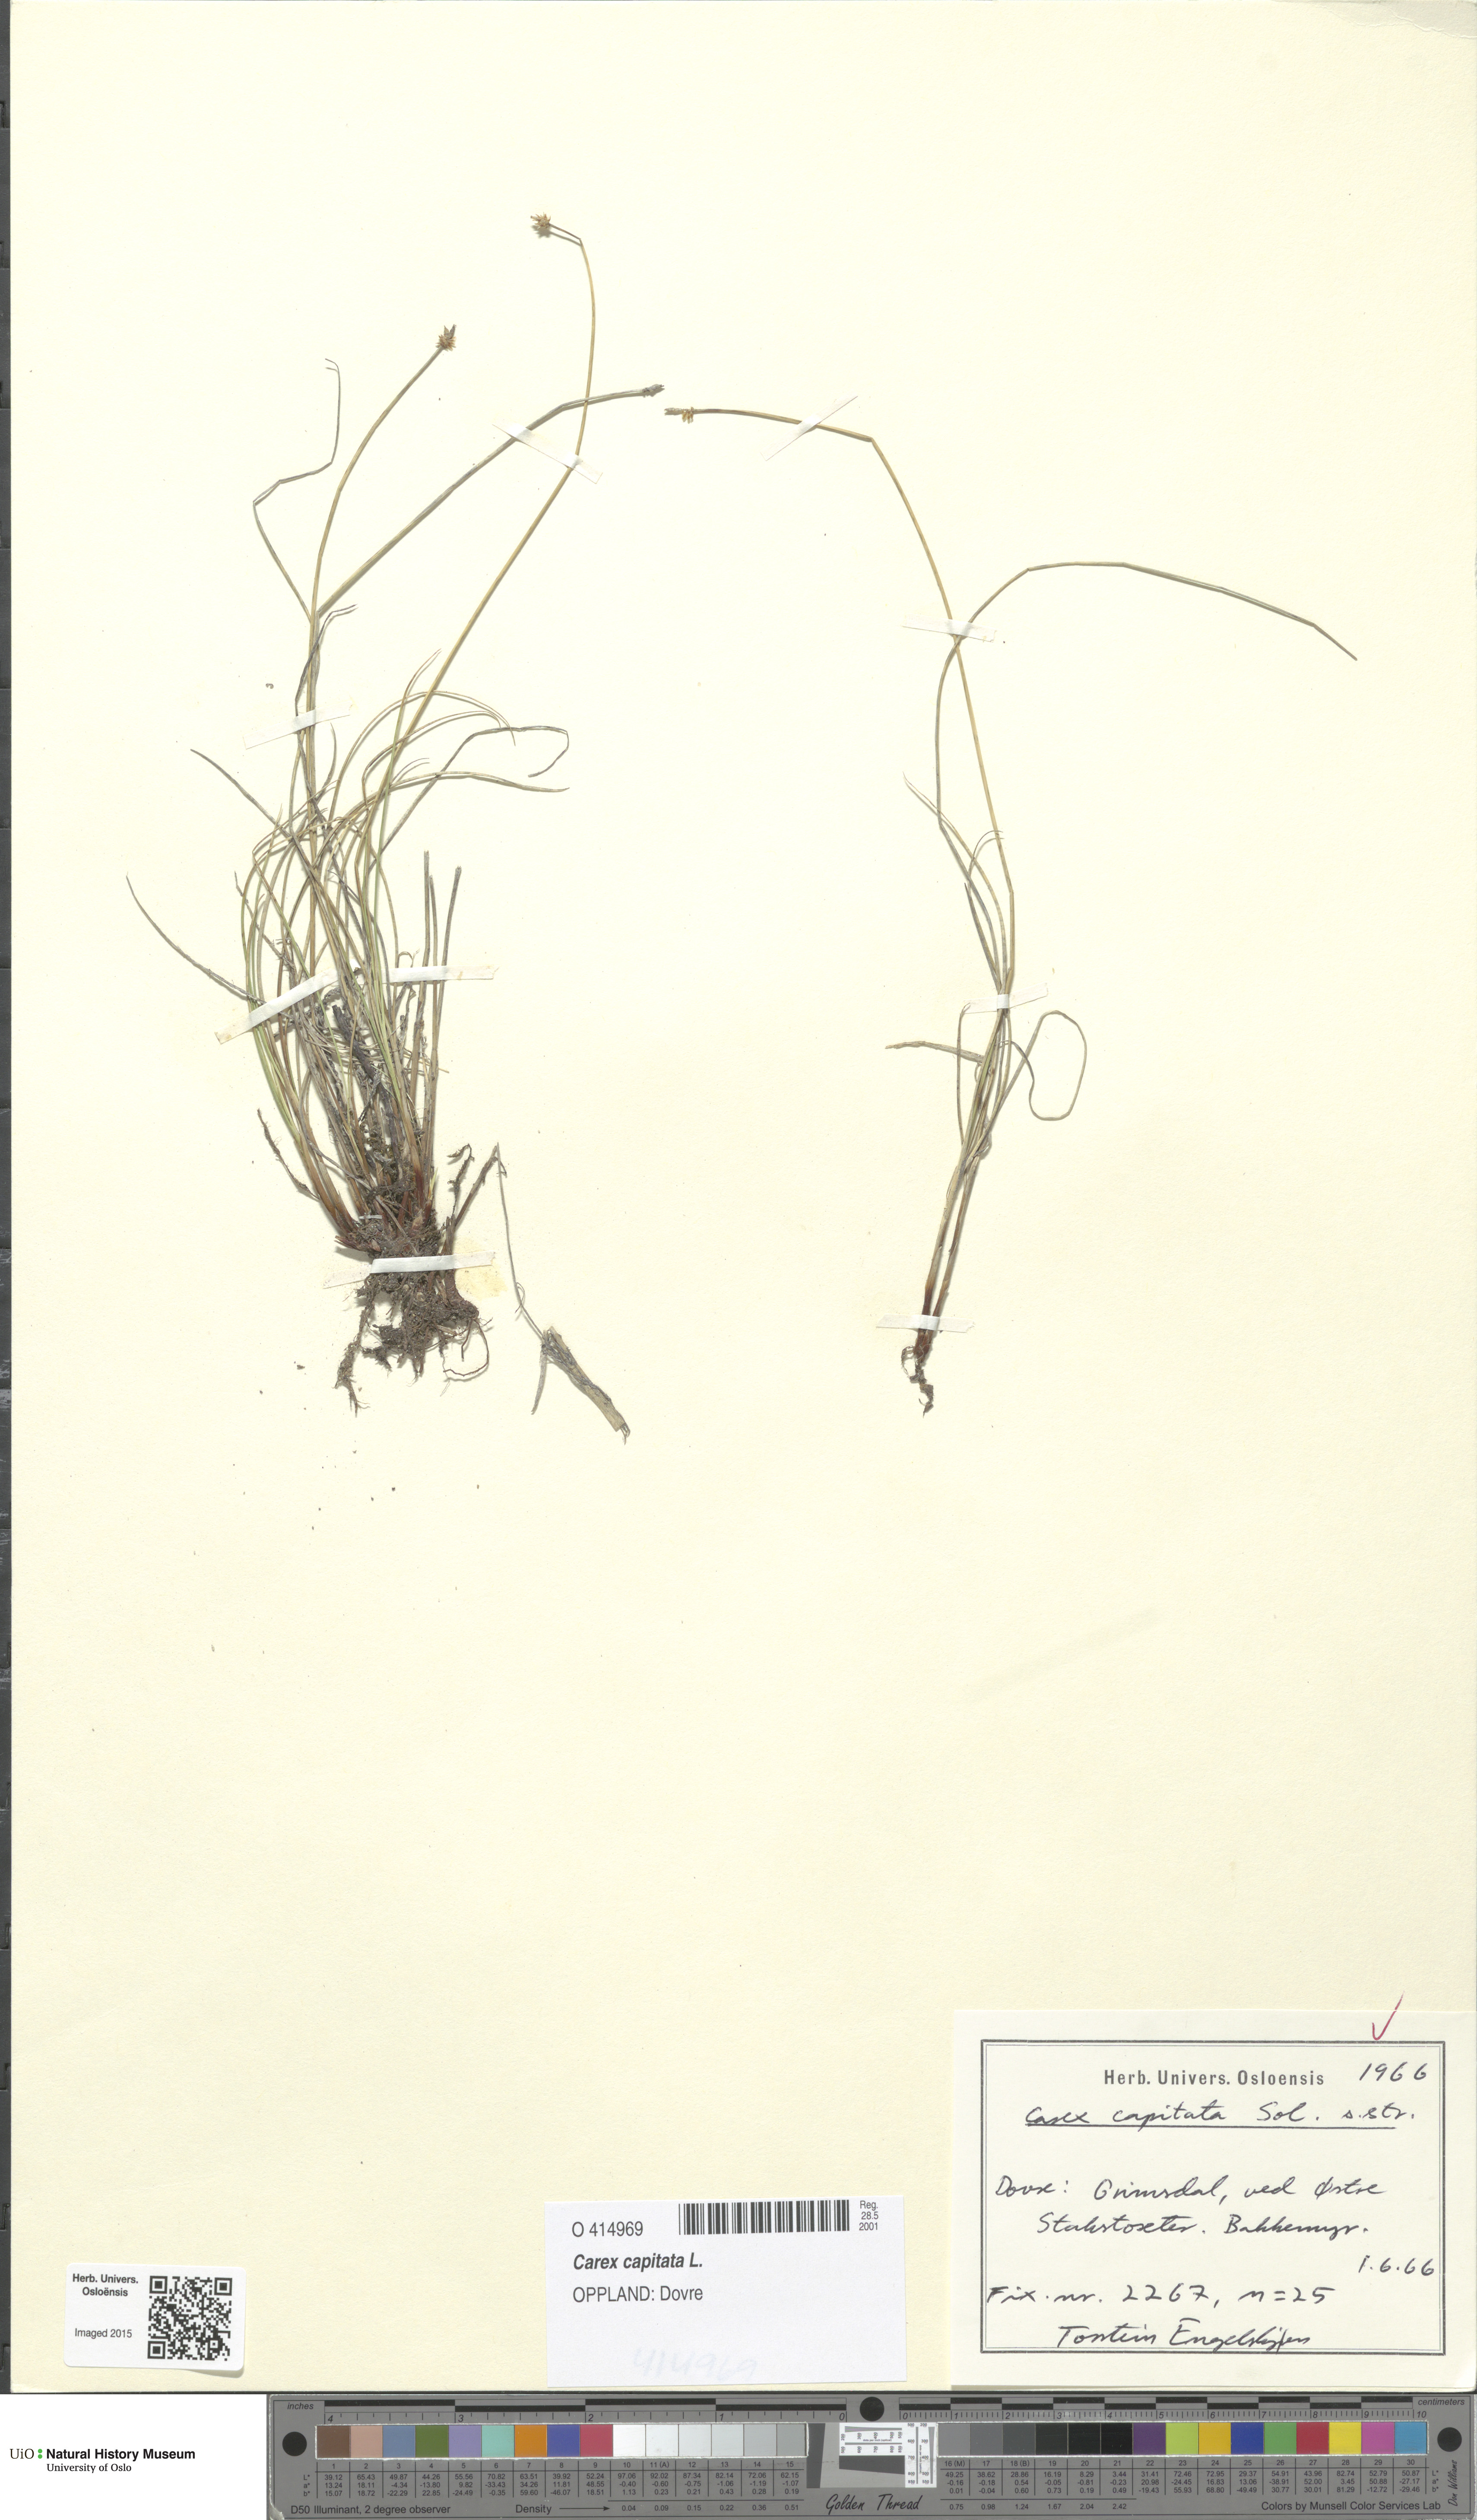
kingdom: Plantae
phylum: Tracheophyta
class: Liliopsida
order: Poales
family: Cyperaceae
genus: Carex
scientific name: Carex capitata
